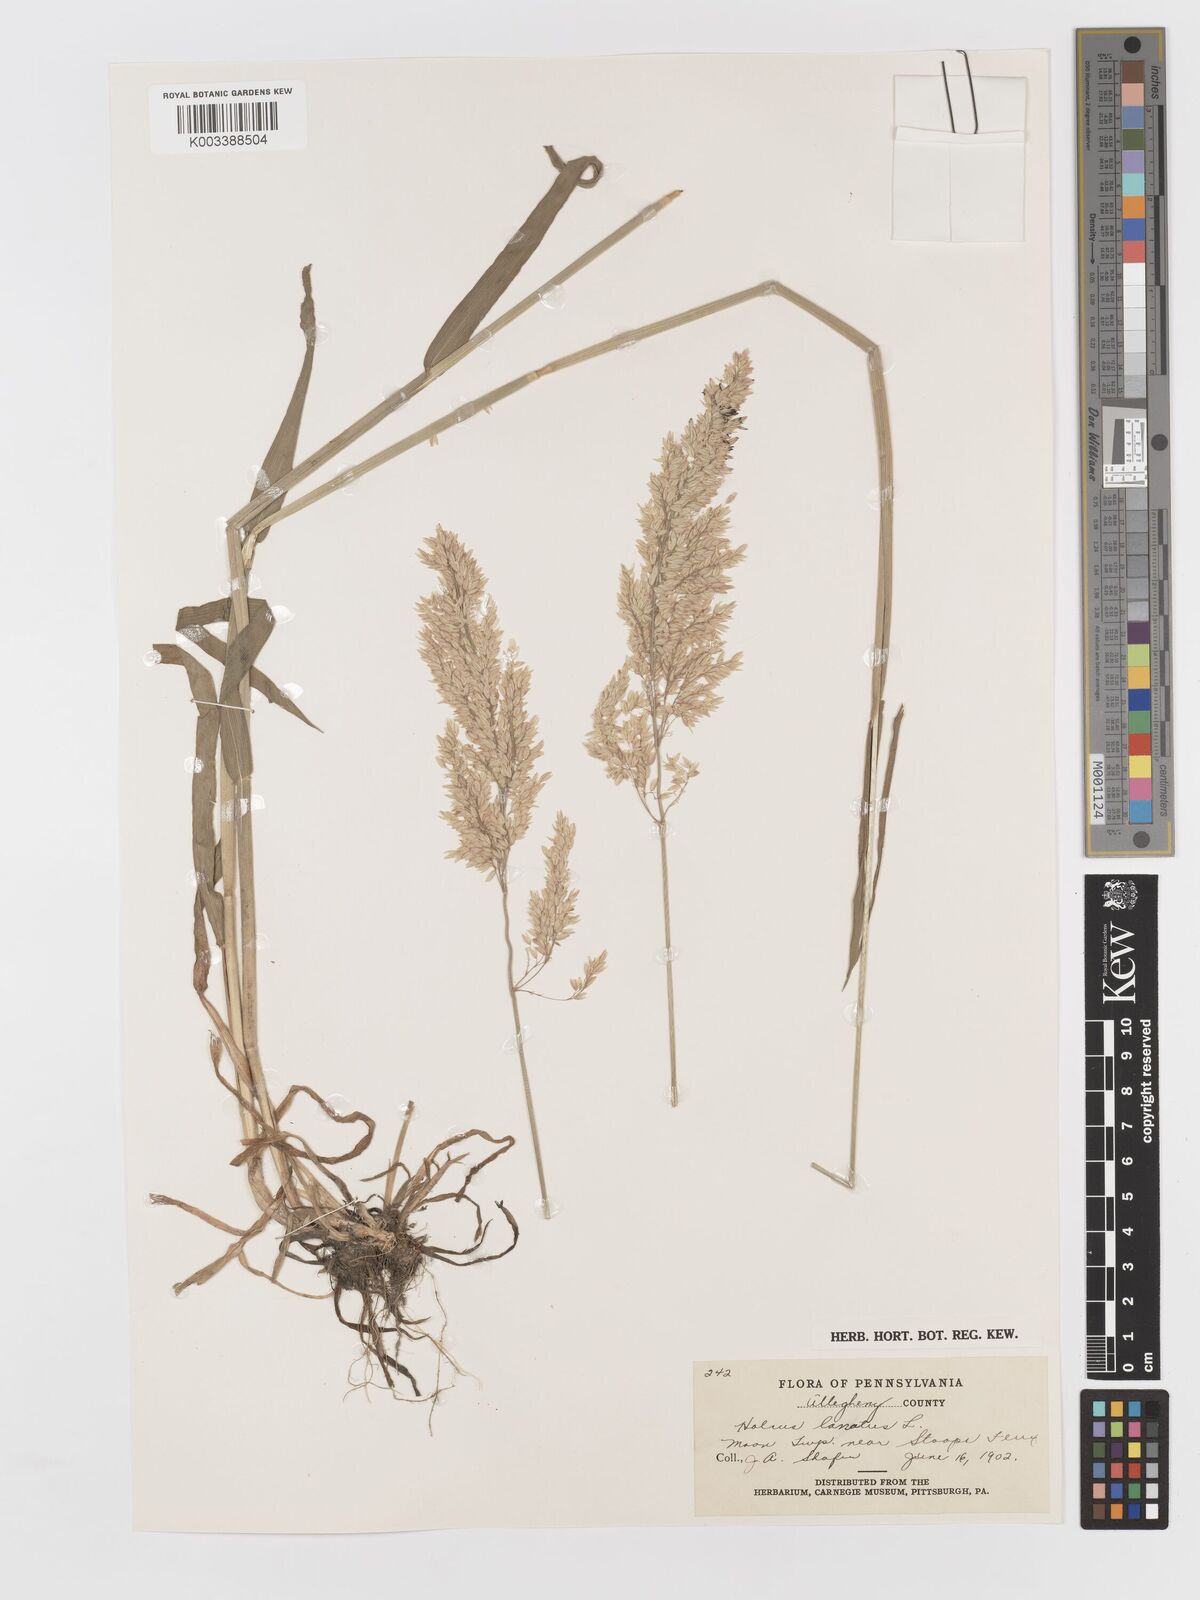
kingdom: Plantae
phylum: Tracheophyta
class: Liliopsida
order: Poales
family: Poaceae
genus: Holcus
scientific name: Holcus lanatus
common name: Yorkshire-fog
